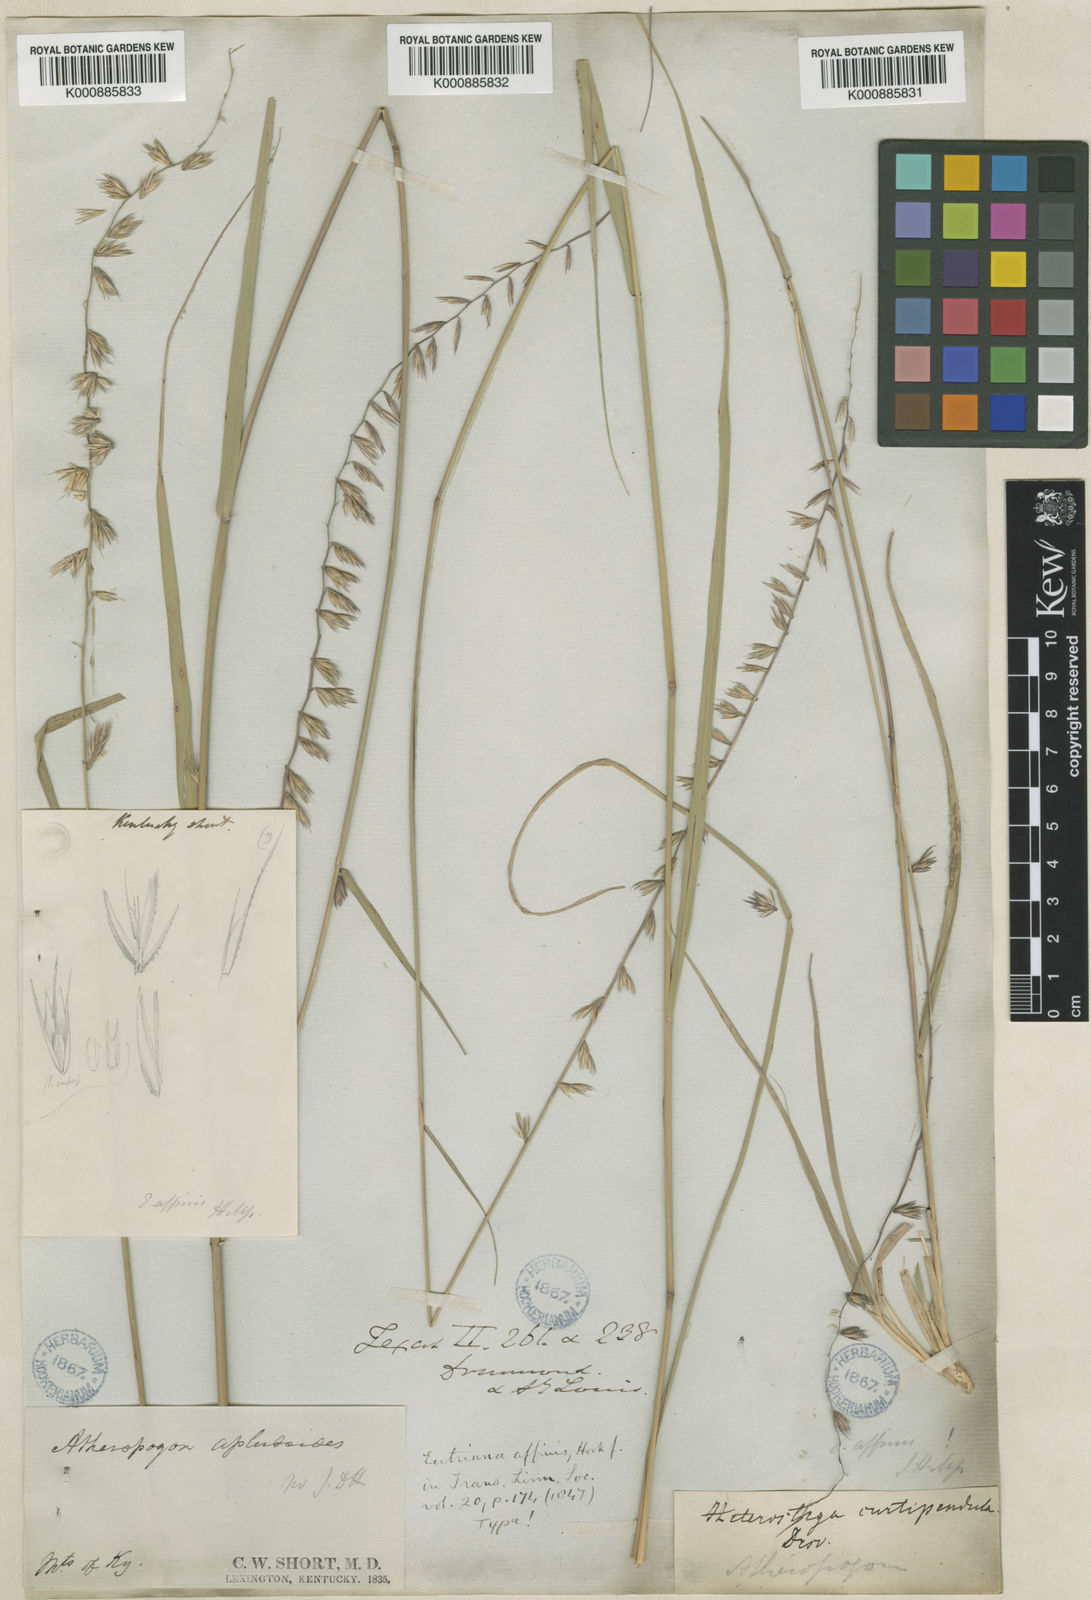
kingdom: Plantae
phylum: Tracheophyta
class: Liliopsida
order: Poales
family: Poaceae
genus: Bouteloua
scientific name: Bouteloua curtipendula
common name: Side-oats grama
